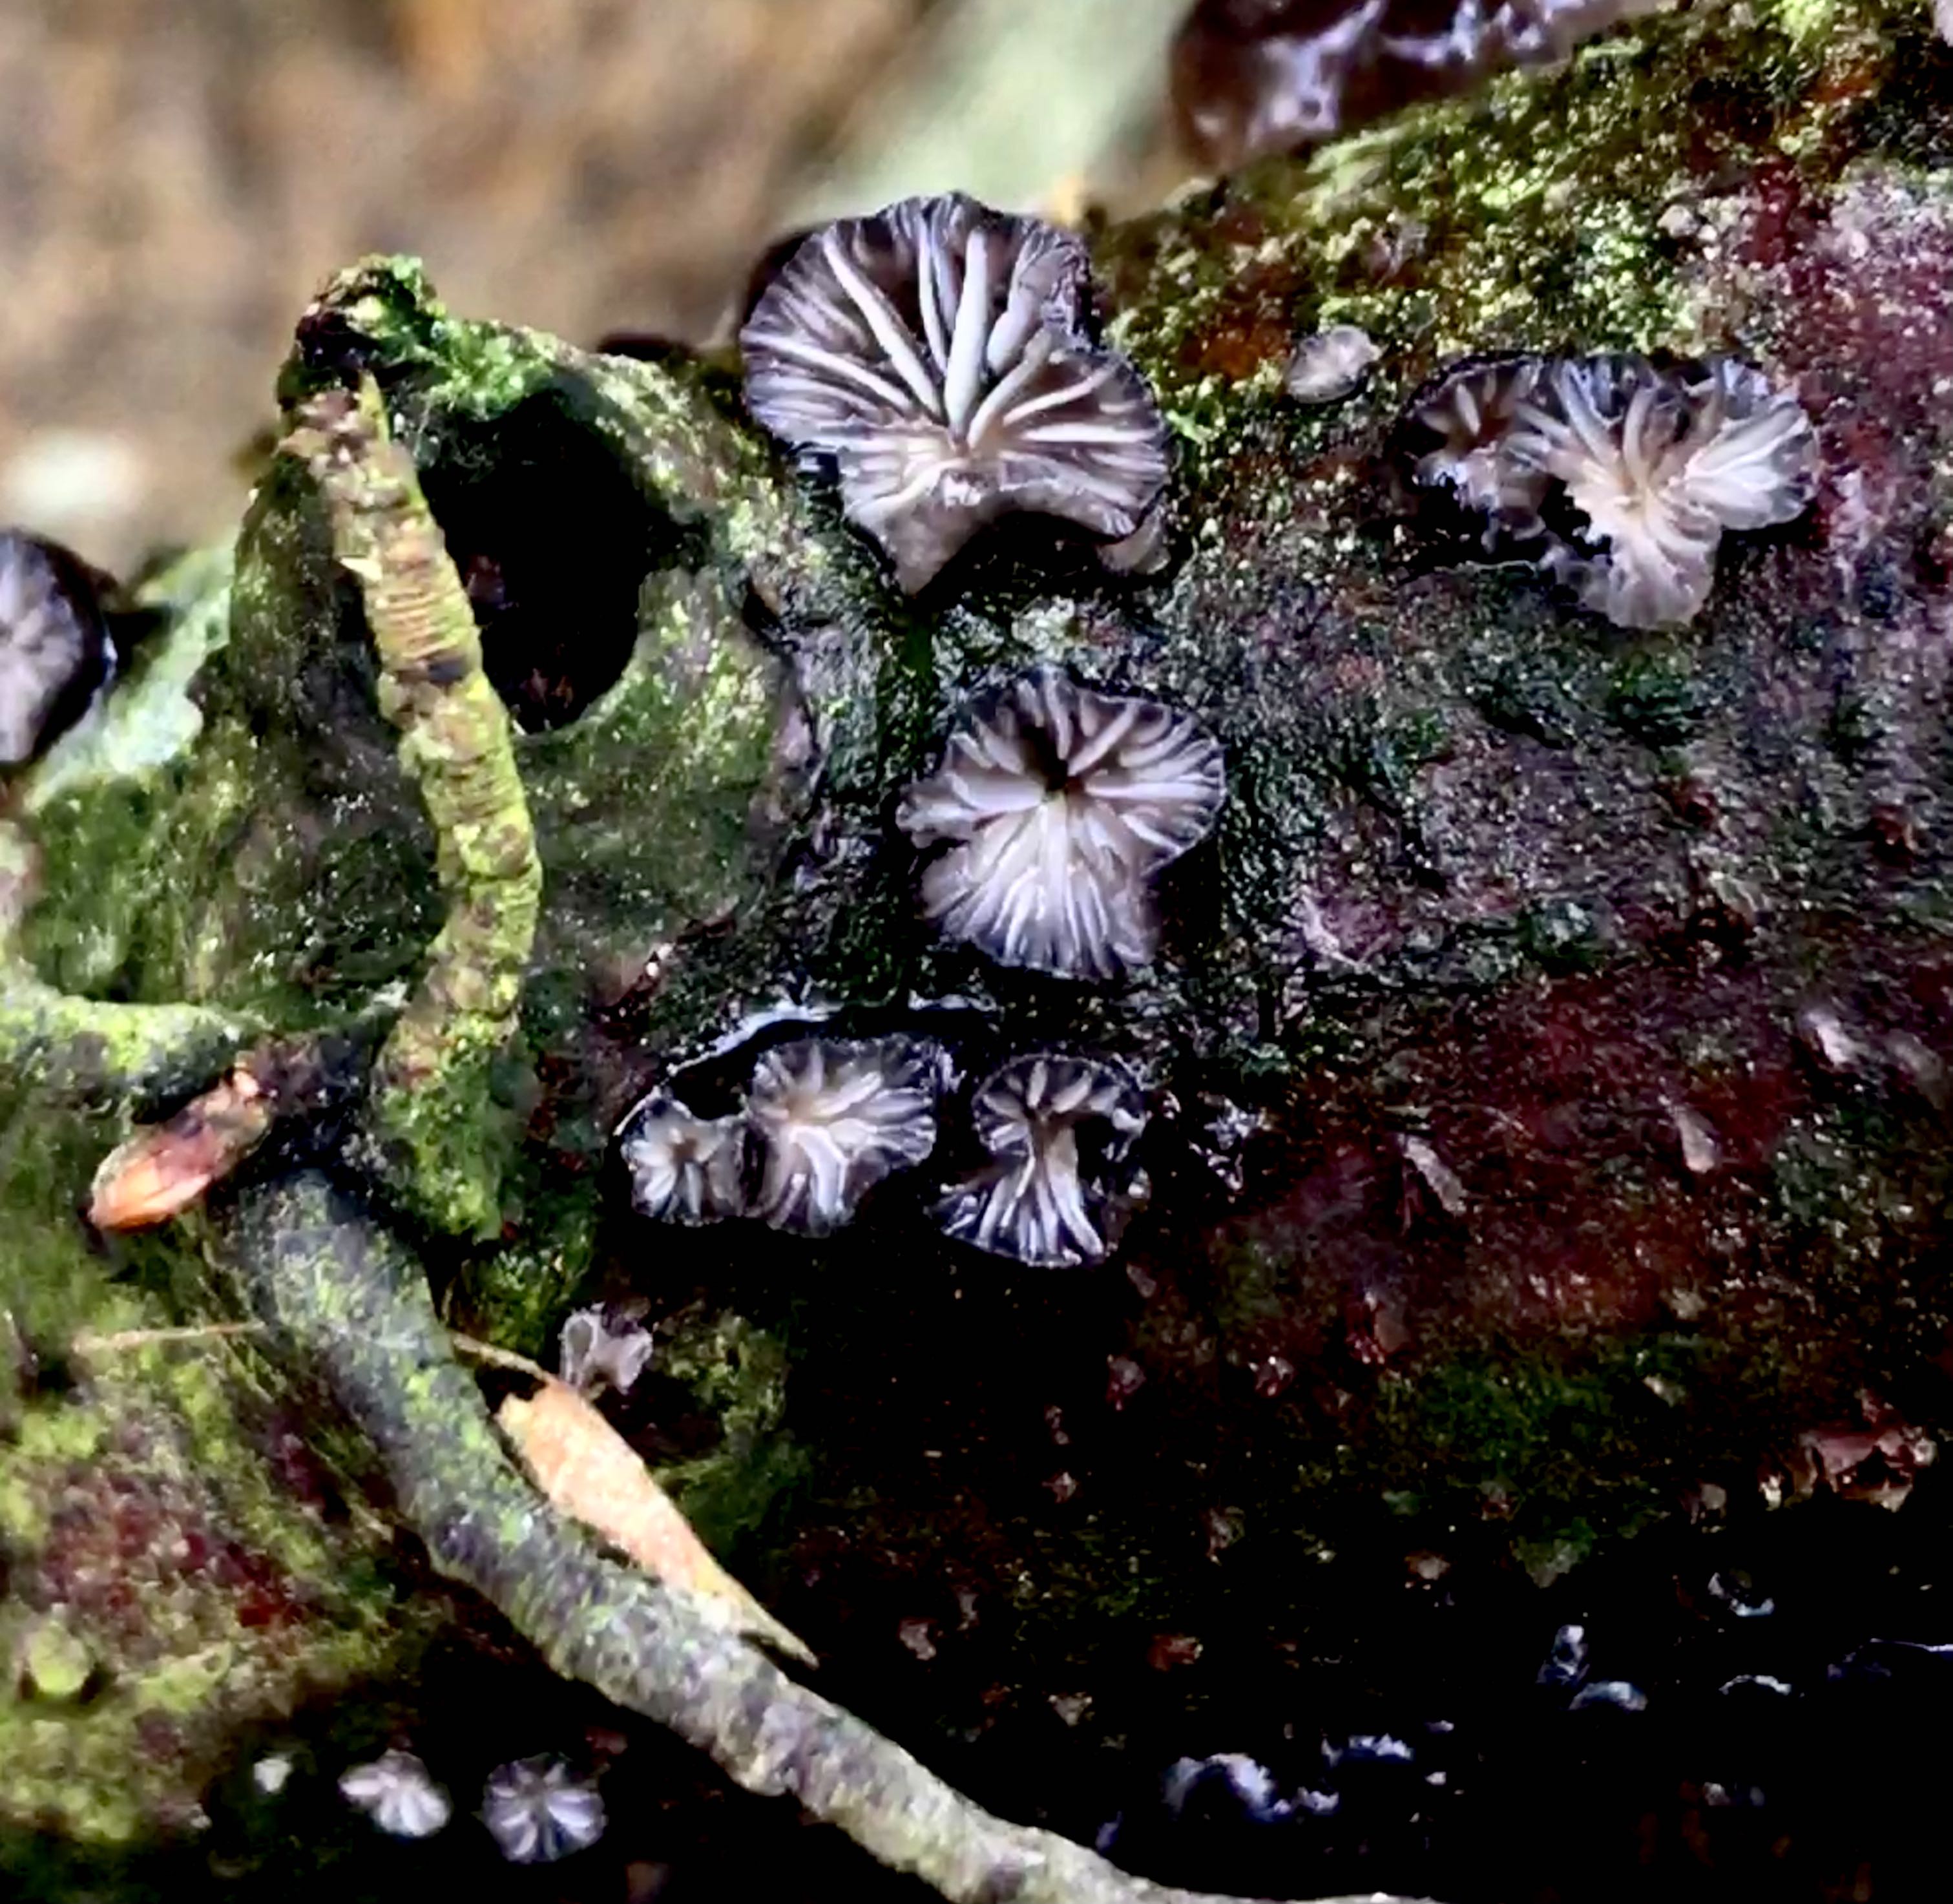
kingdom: Fungi
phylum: Basidiomycota
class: Agaricomycetes
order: Agaricales
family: Pleurotaceae
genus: Hohenbuehelia
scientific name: Hohenbuehelia unguicularis
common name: hovformet filthat
